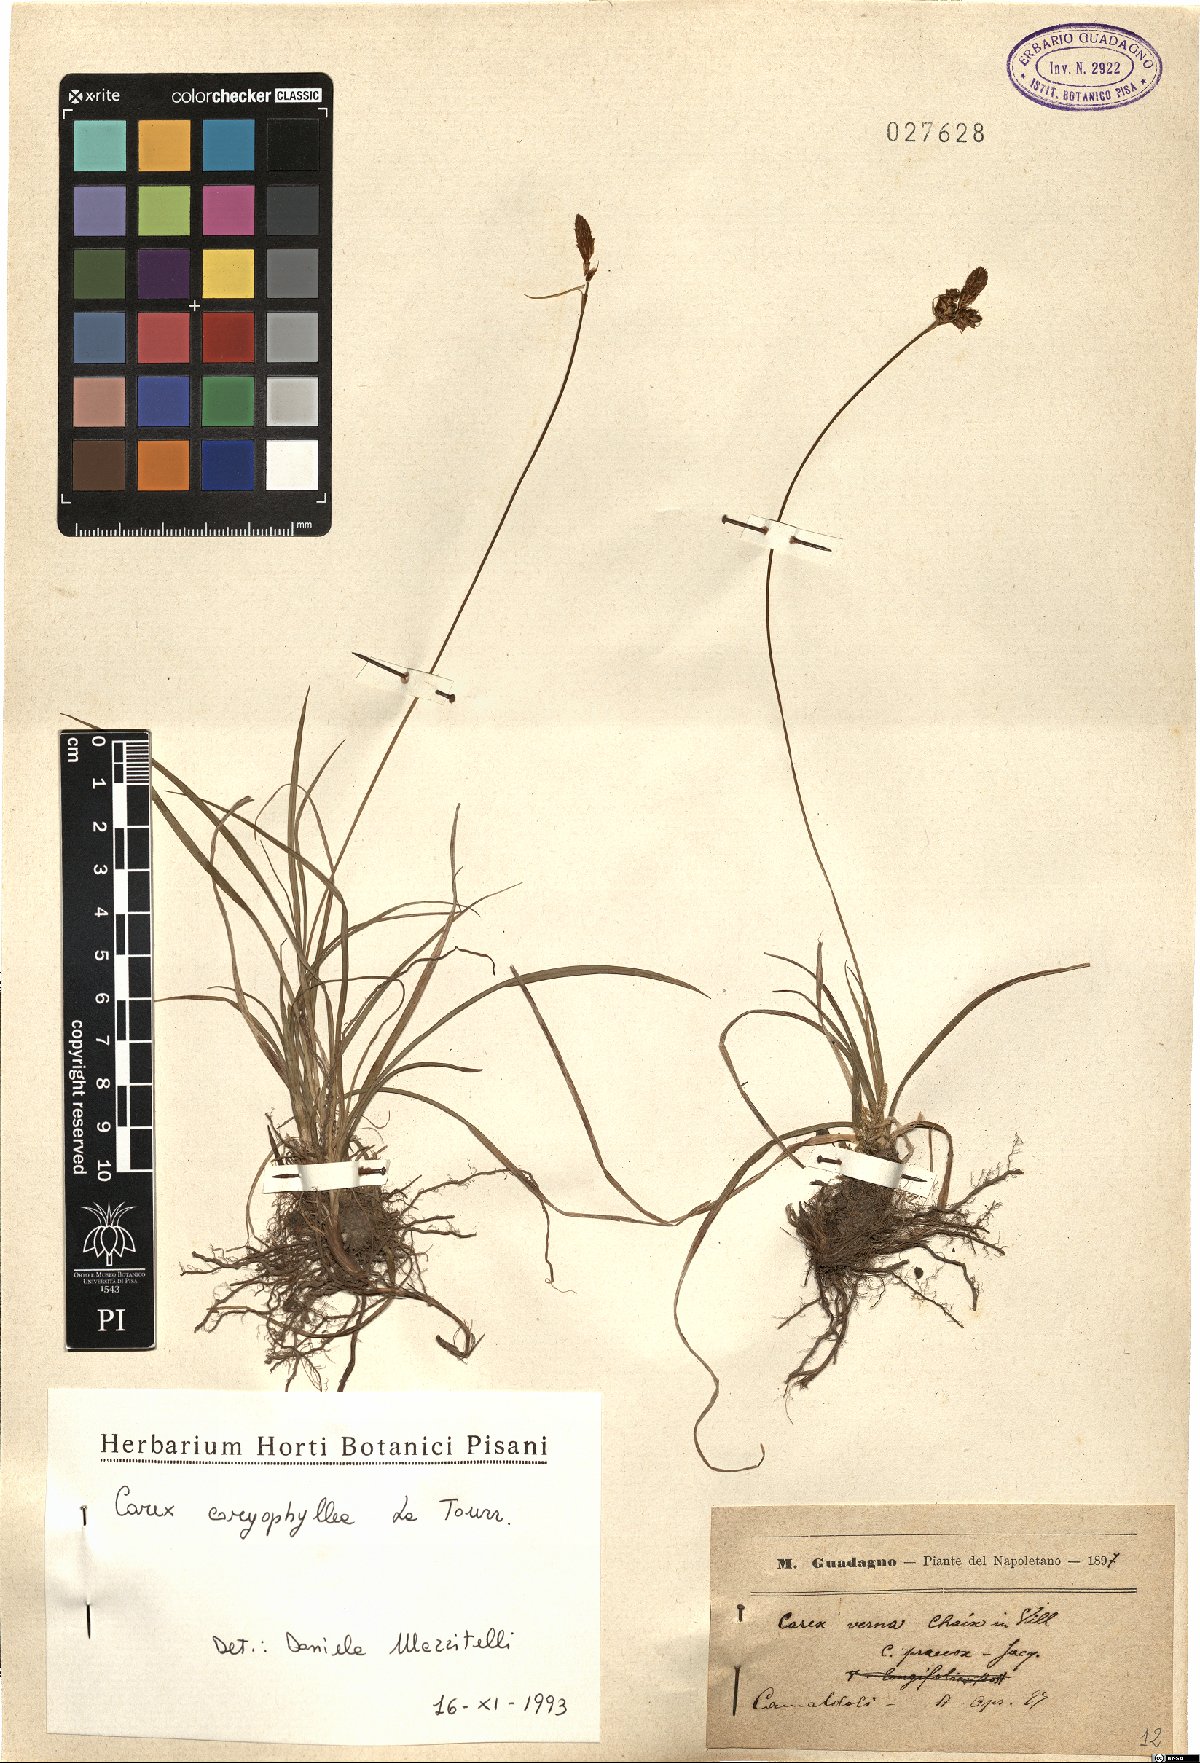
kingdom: Plantae
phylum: Tracheophyta
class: Liliopsida
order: Poales
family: Cyperaceae
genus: Carex
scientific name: Carex caryophyllea
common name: Spring sedge
